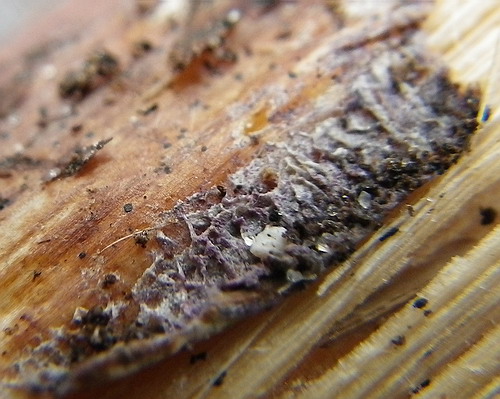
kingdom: Fungi
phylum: Basidiomycota
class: Agaricomycetes
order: Polyporales
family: Phanerochaetaceae
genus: Hapalopilus
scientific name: Hapalopilus eupatorii
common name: urte-okkerporesvamp
